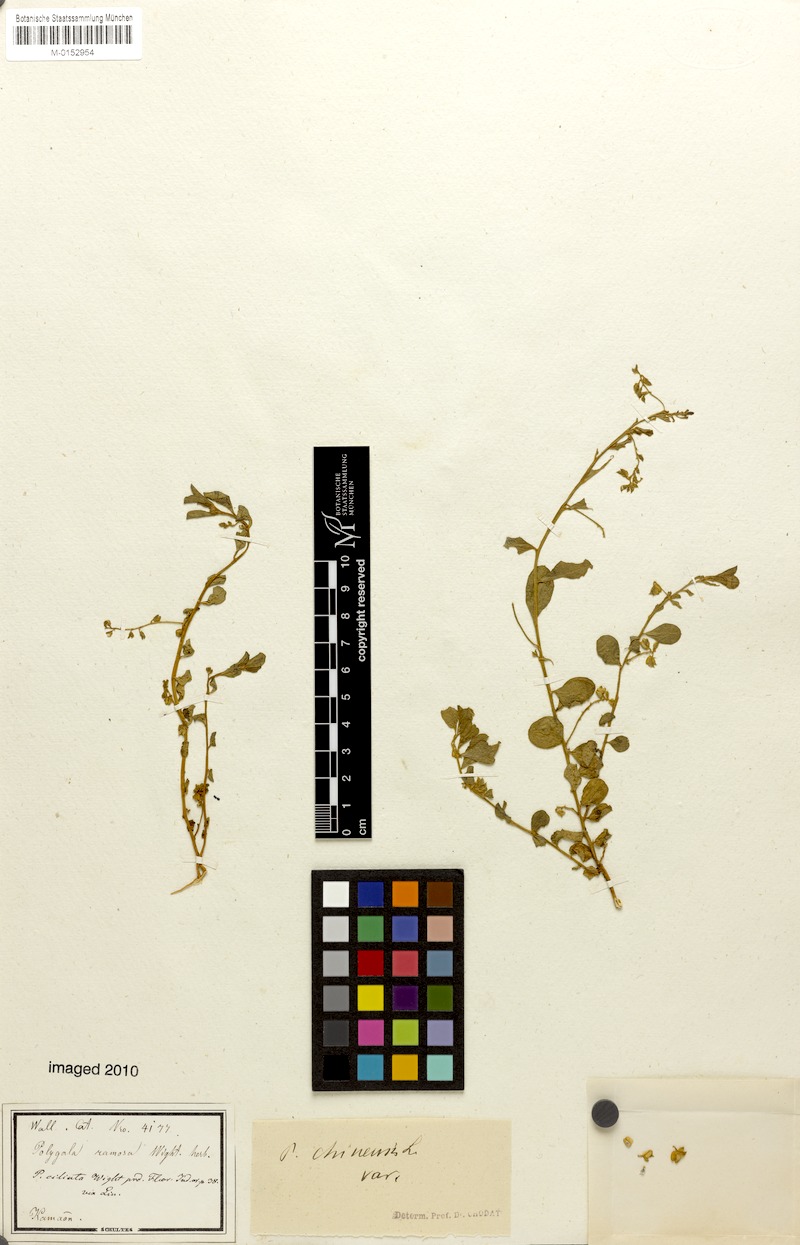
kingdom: Plantae
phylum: Tracheophyta
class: Magnoliopsida
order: Fabales
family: Polygalaceae
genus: Polygala
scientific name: Polygala glomerata
